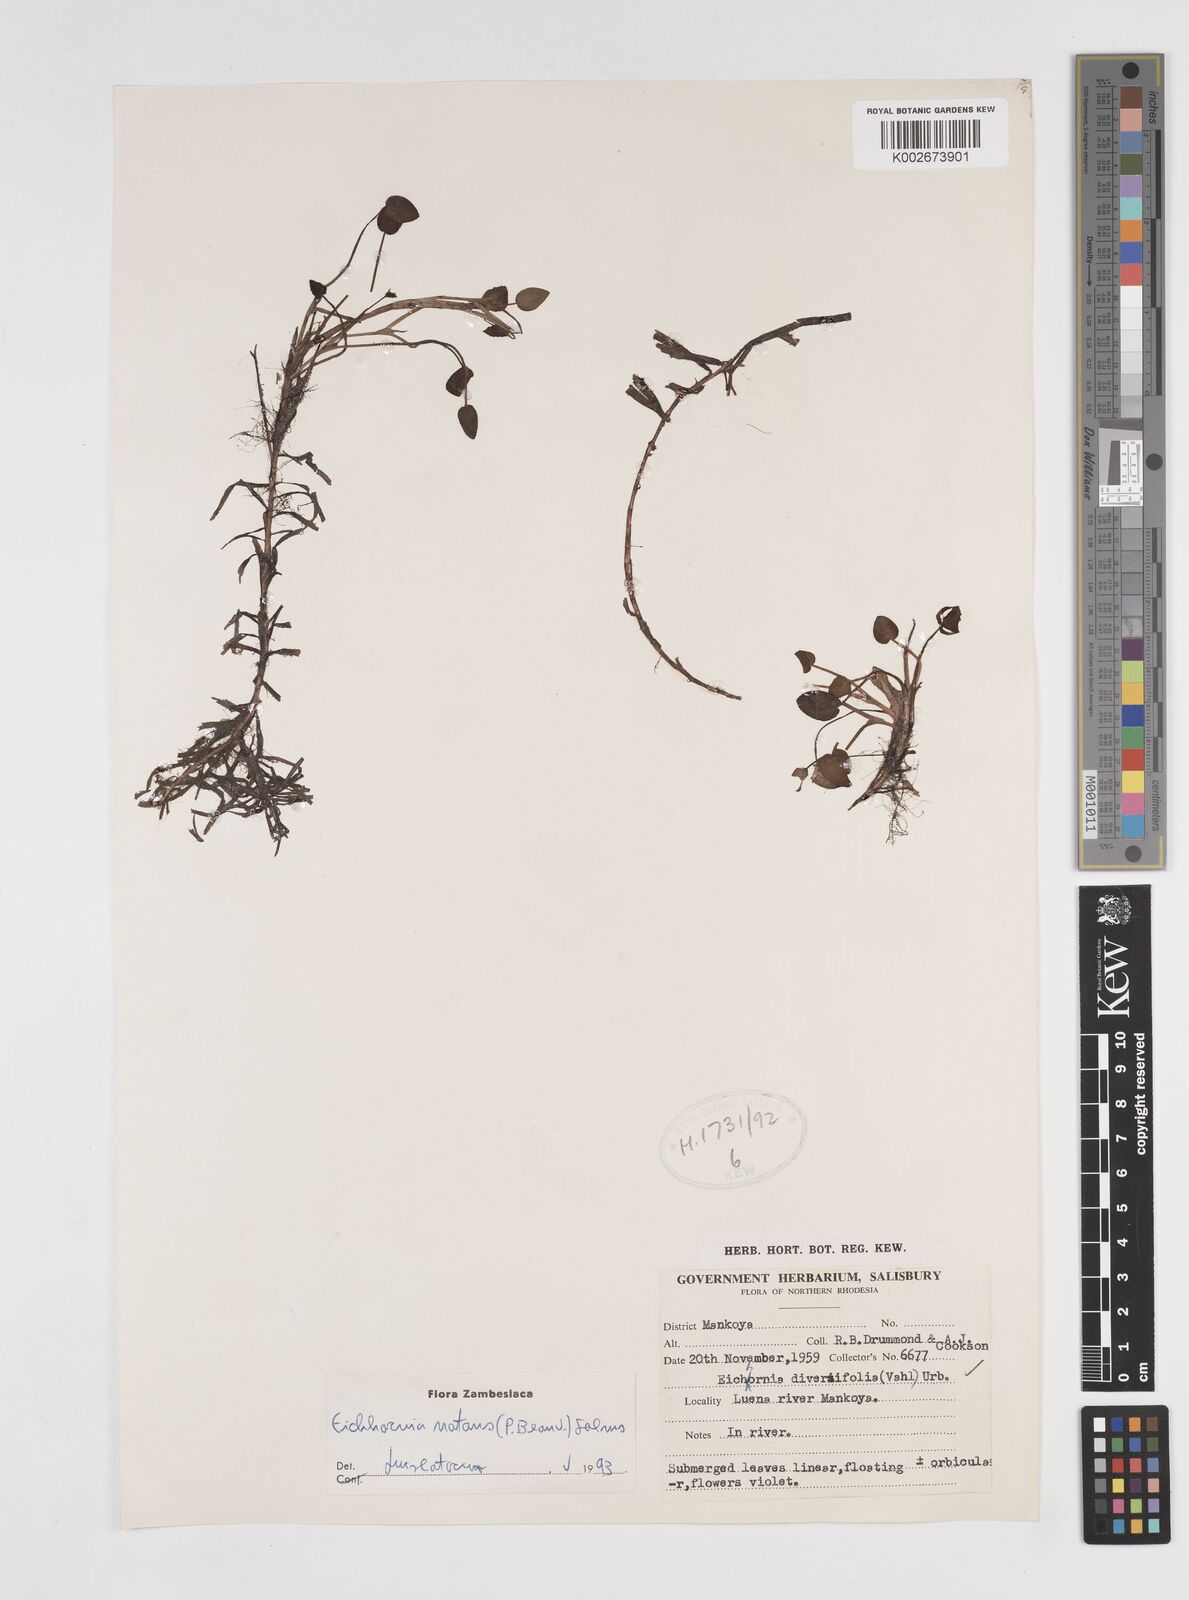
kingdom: Plantae
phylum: Tracheophyta
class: Liliopsida
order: Commelinales
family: Pontederiaceae
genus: Pontederia
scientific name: Pontederia diversifolia
